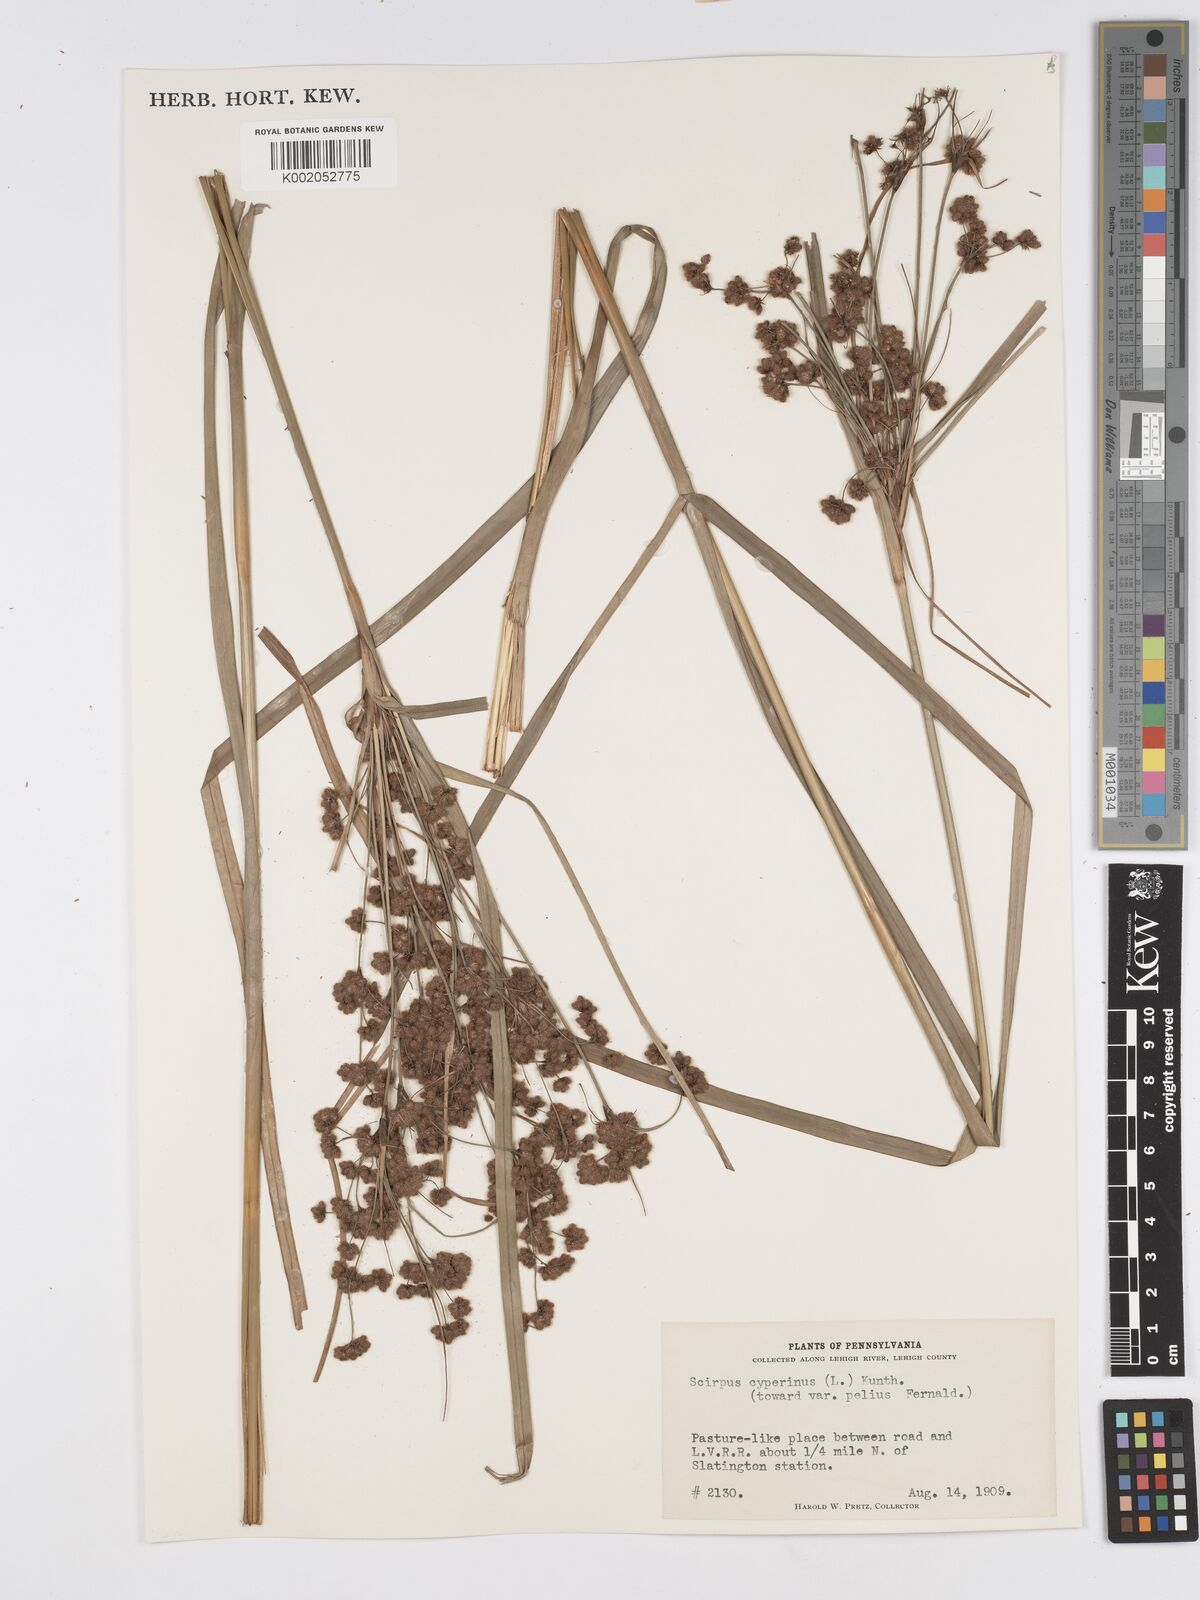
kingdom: Plantae
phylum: Tracheophyta
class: Liliopsida
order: Poales
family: Cyperaceae
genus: Scirpus
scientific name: Scirpus cyperinus
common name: Black-sheathed bulrush
